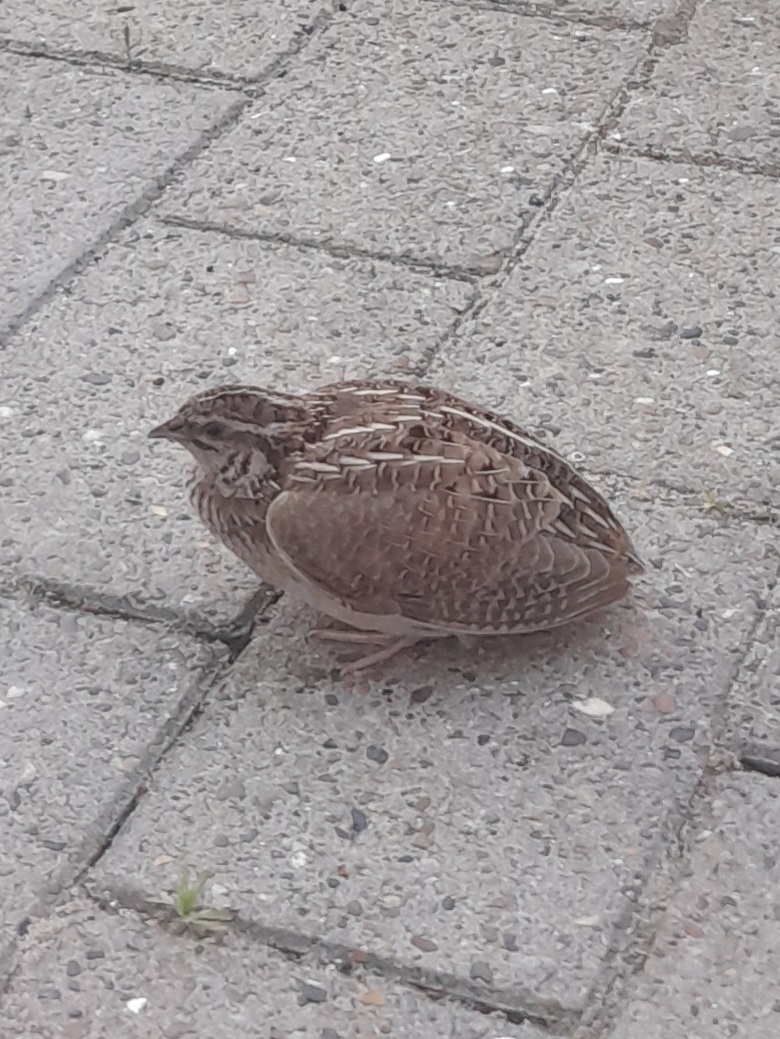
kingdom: Animalia
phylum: Chordata
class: Aves
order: Galliformes
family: Phasianidae
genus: Coturnix
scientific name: Coturnix coturnix
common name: Vagtel
